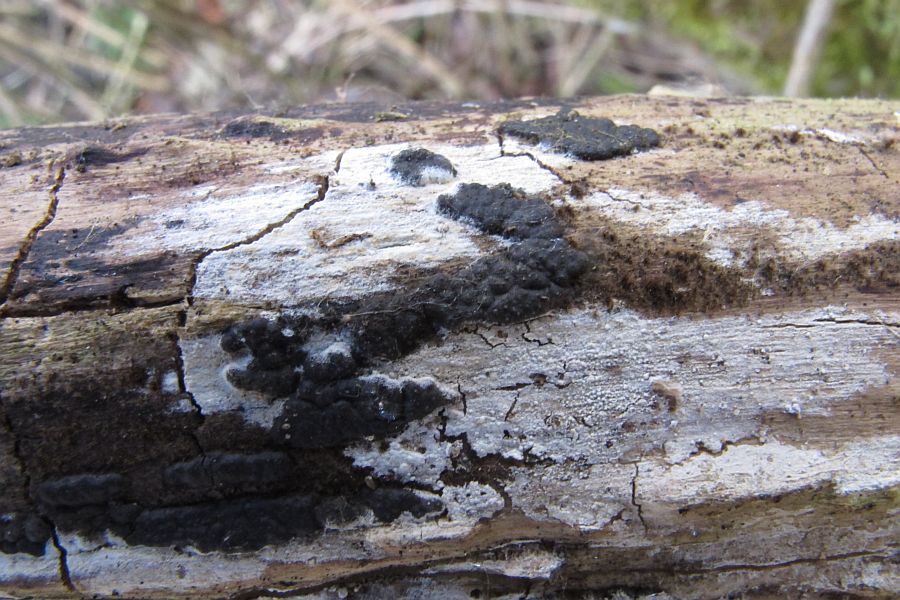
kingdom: Fungi
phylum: Ascomycota
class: Sordariomycetes
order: Xylariales
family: Xylariaceae
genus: Nemania
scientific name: Nemania serpens
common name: almindelig kuldyne
